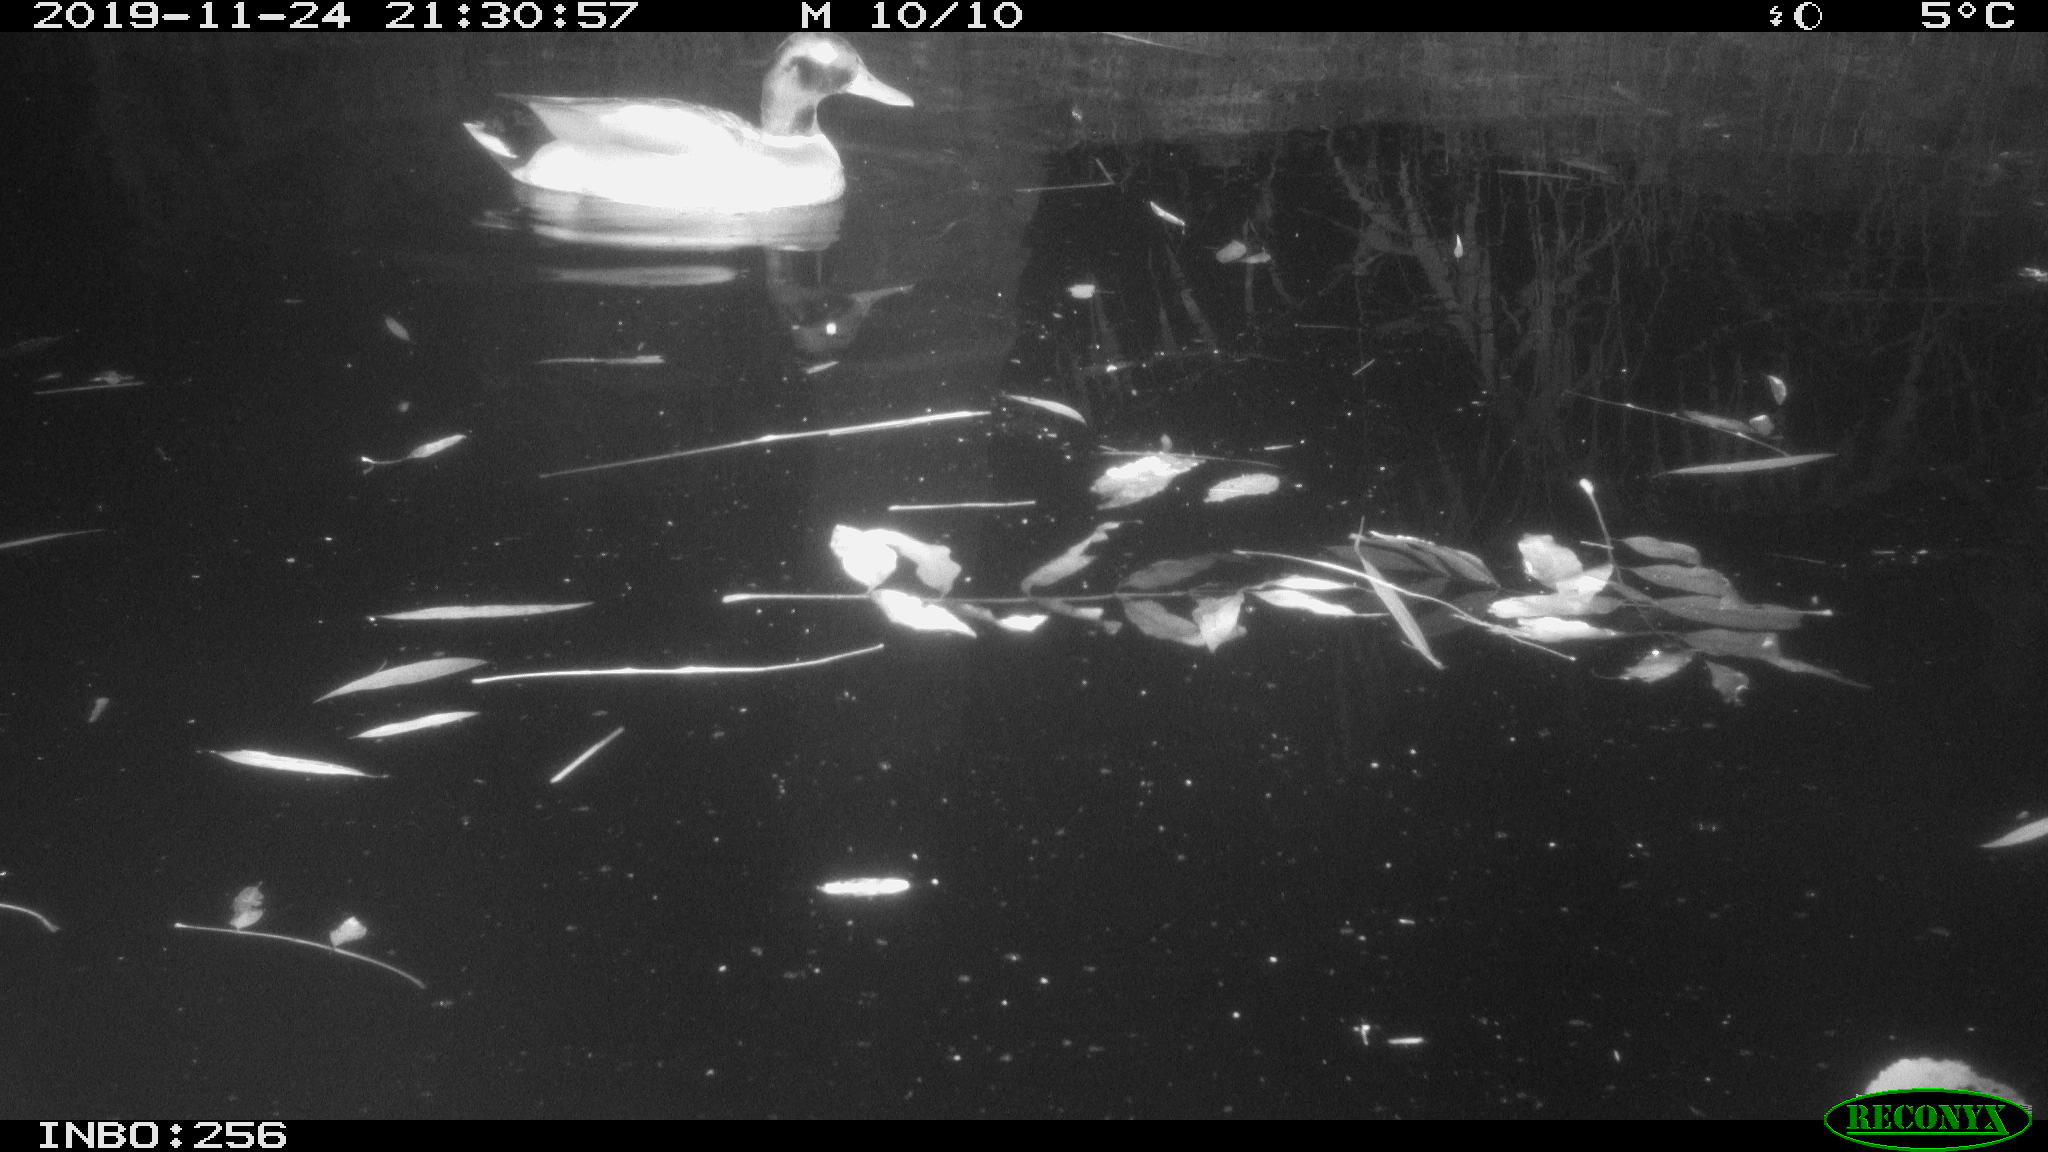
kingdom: Animalia
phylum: Chordata
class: Aves
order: Anseriformes
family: Anatidae
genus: Anas
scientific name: Anas platyrhynchos
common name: Mallard
